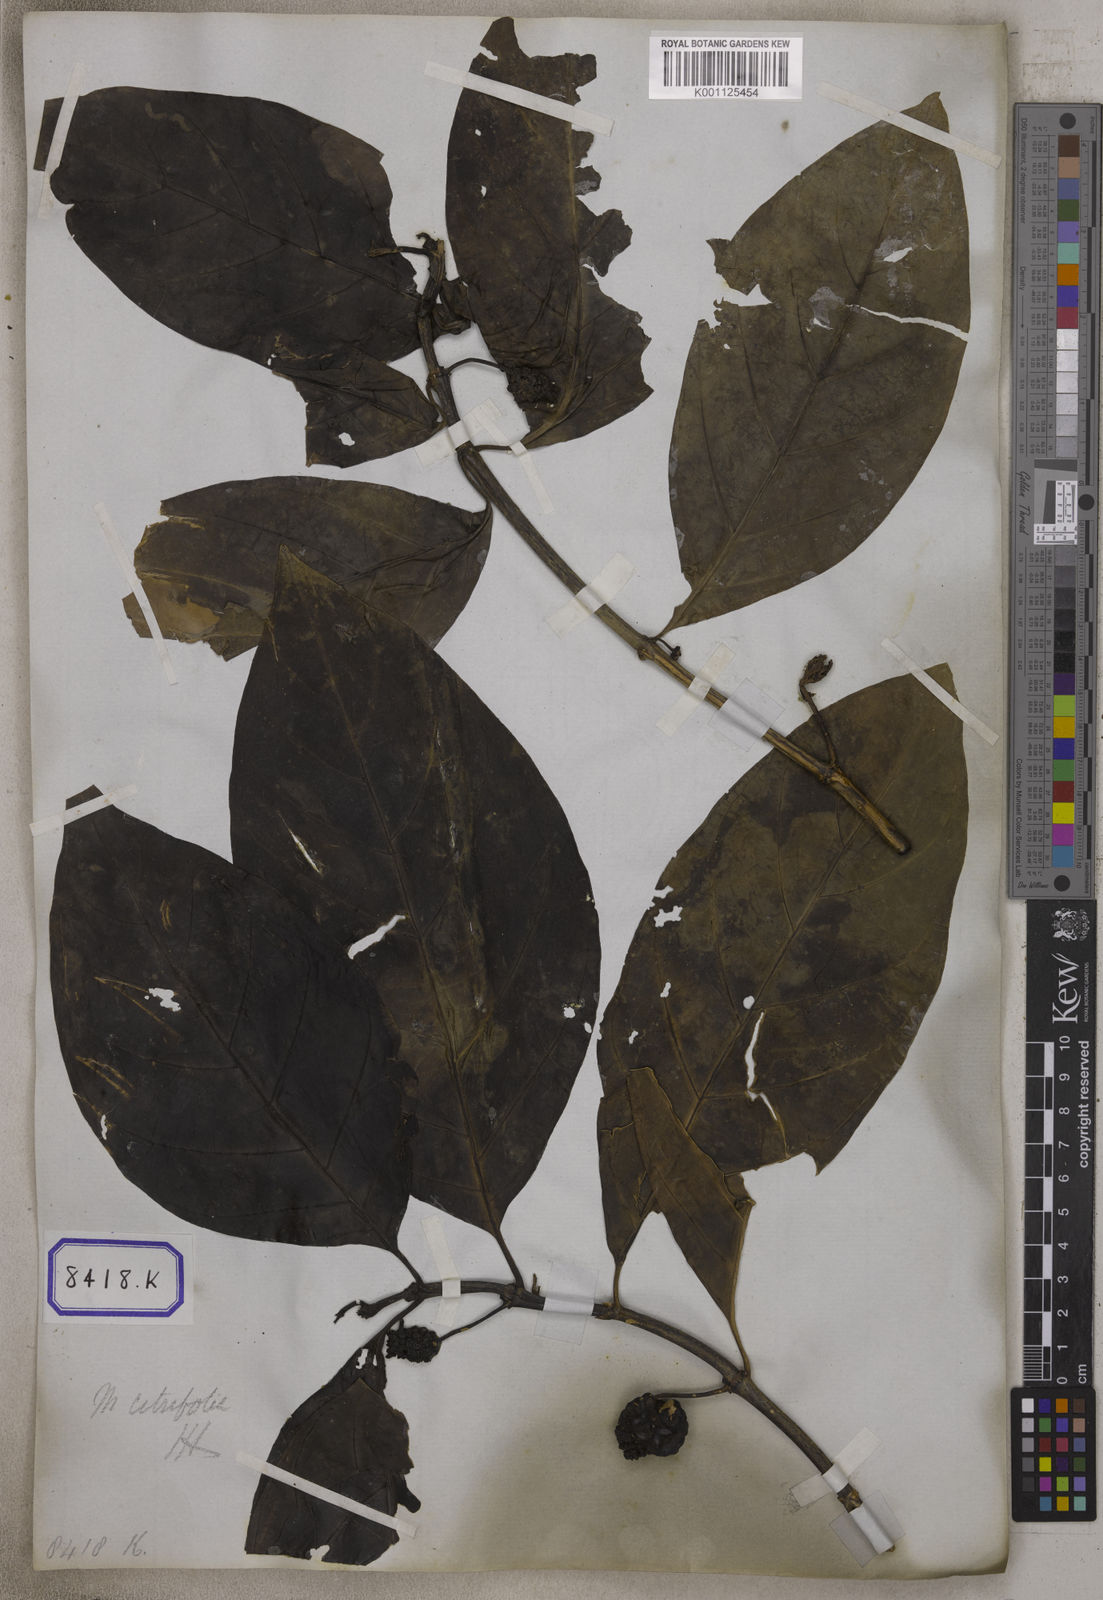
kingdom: Plantae
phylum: Tracheophyta
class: Magnoliopsida
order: Gentianales
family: Rubiaceae
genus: Morinda
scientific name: Morinda citrifolia
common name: Indian-mulberry
